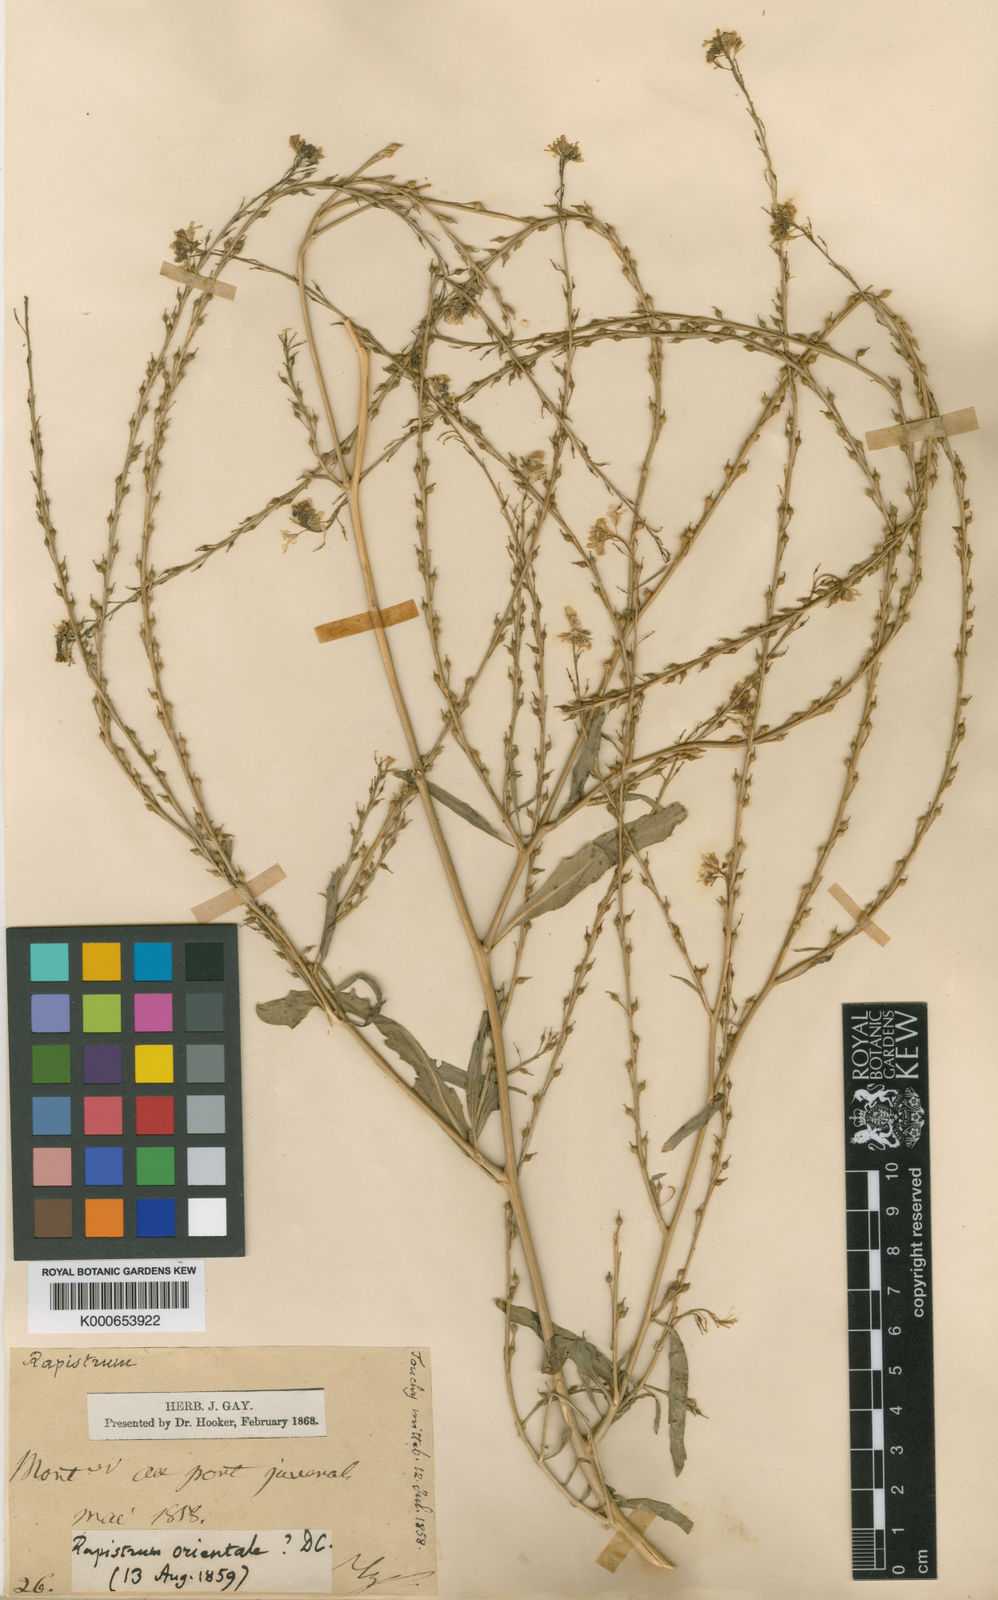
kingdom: Plantae
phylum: Tracheophyta
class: Magnoliopsida
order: Brassicales
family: Brassicaceae
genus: Rapistrum
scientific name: Rapistrum rugosum
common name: Annual bastardcabbage
